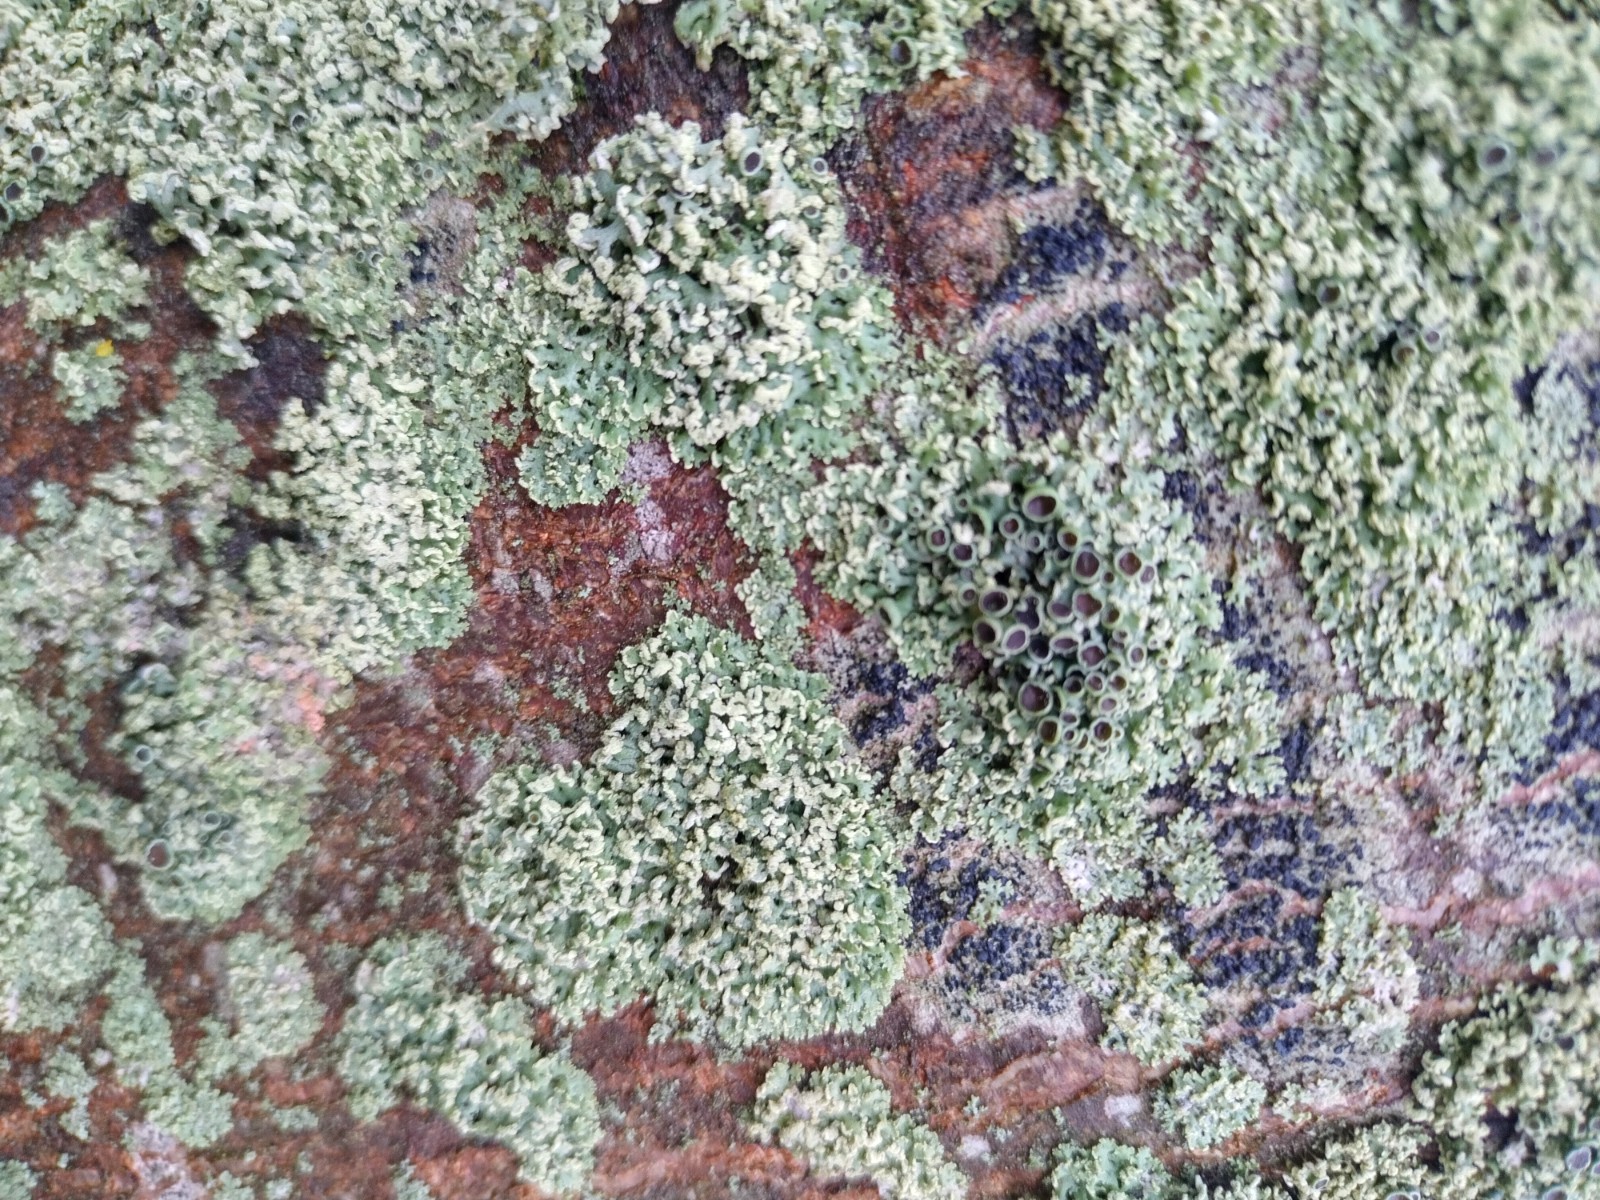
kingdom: Fungi
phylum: Ascomycota
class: Lecanoromycetes
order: Caliciales
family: Physciaceae
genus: Physcia
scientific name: Physcia tenella
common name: spæd rosetlav
